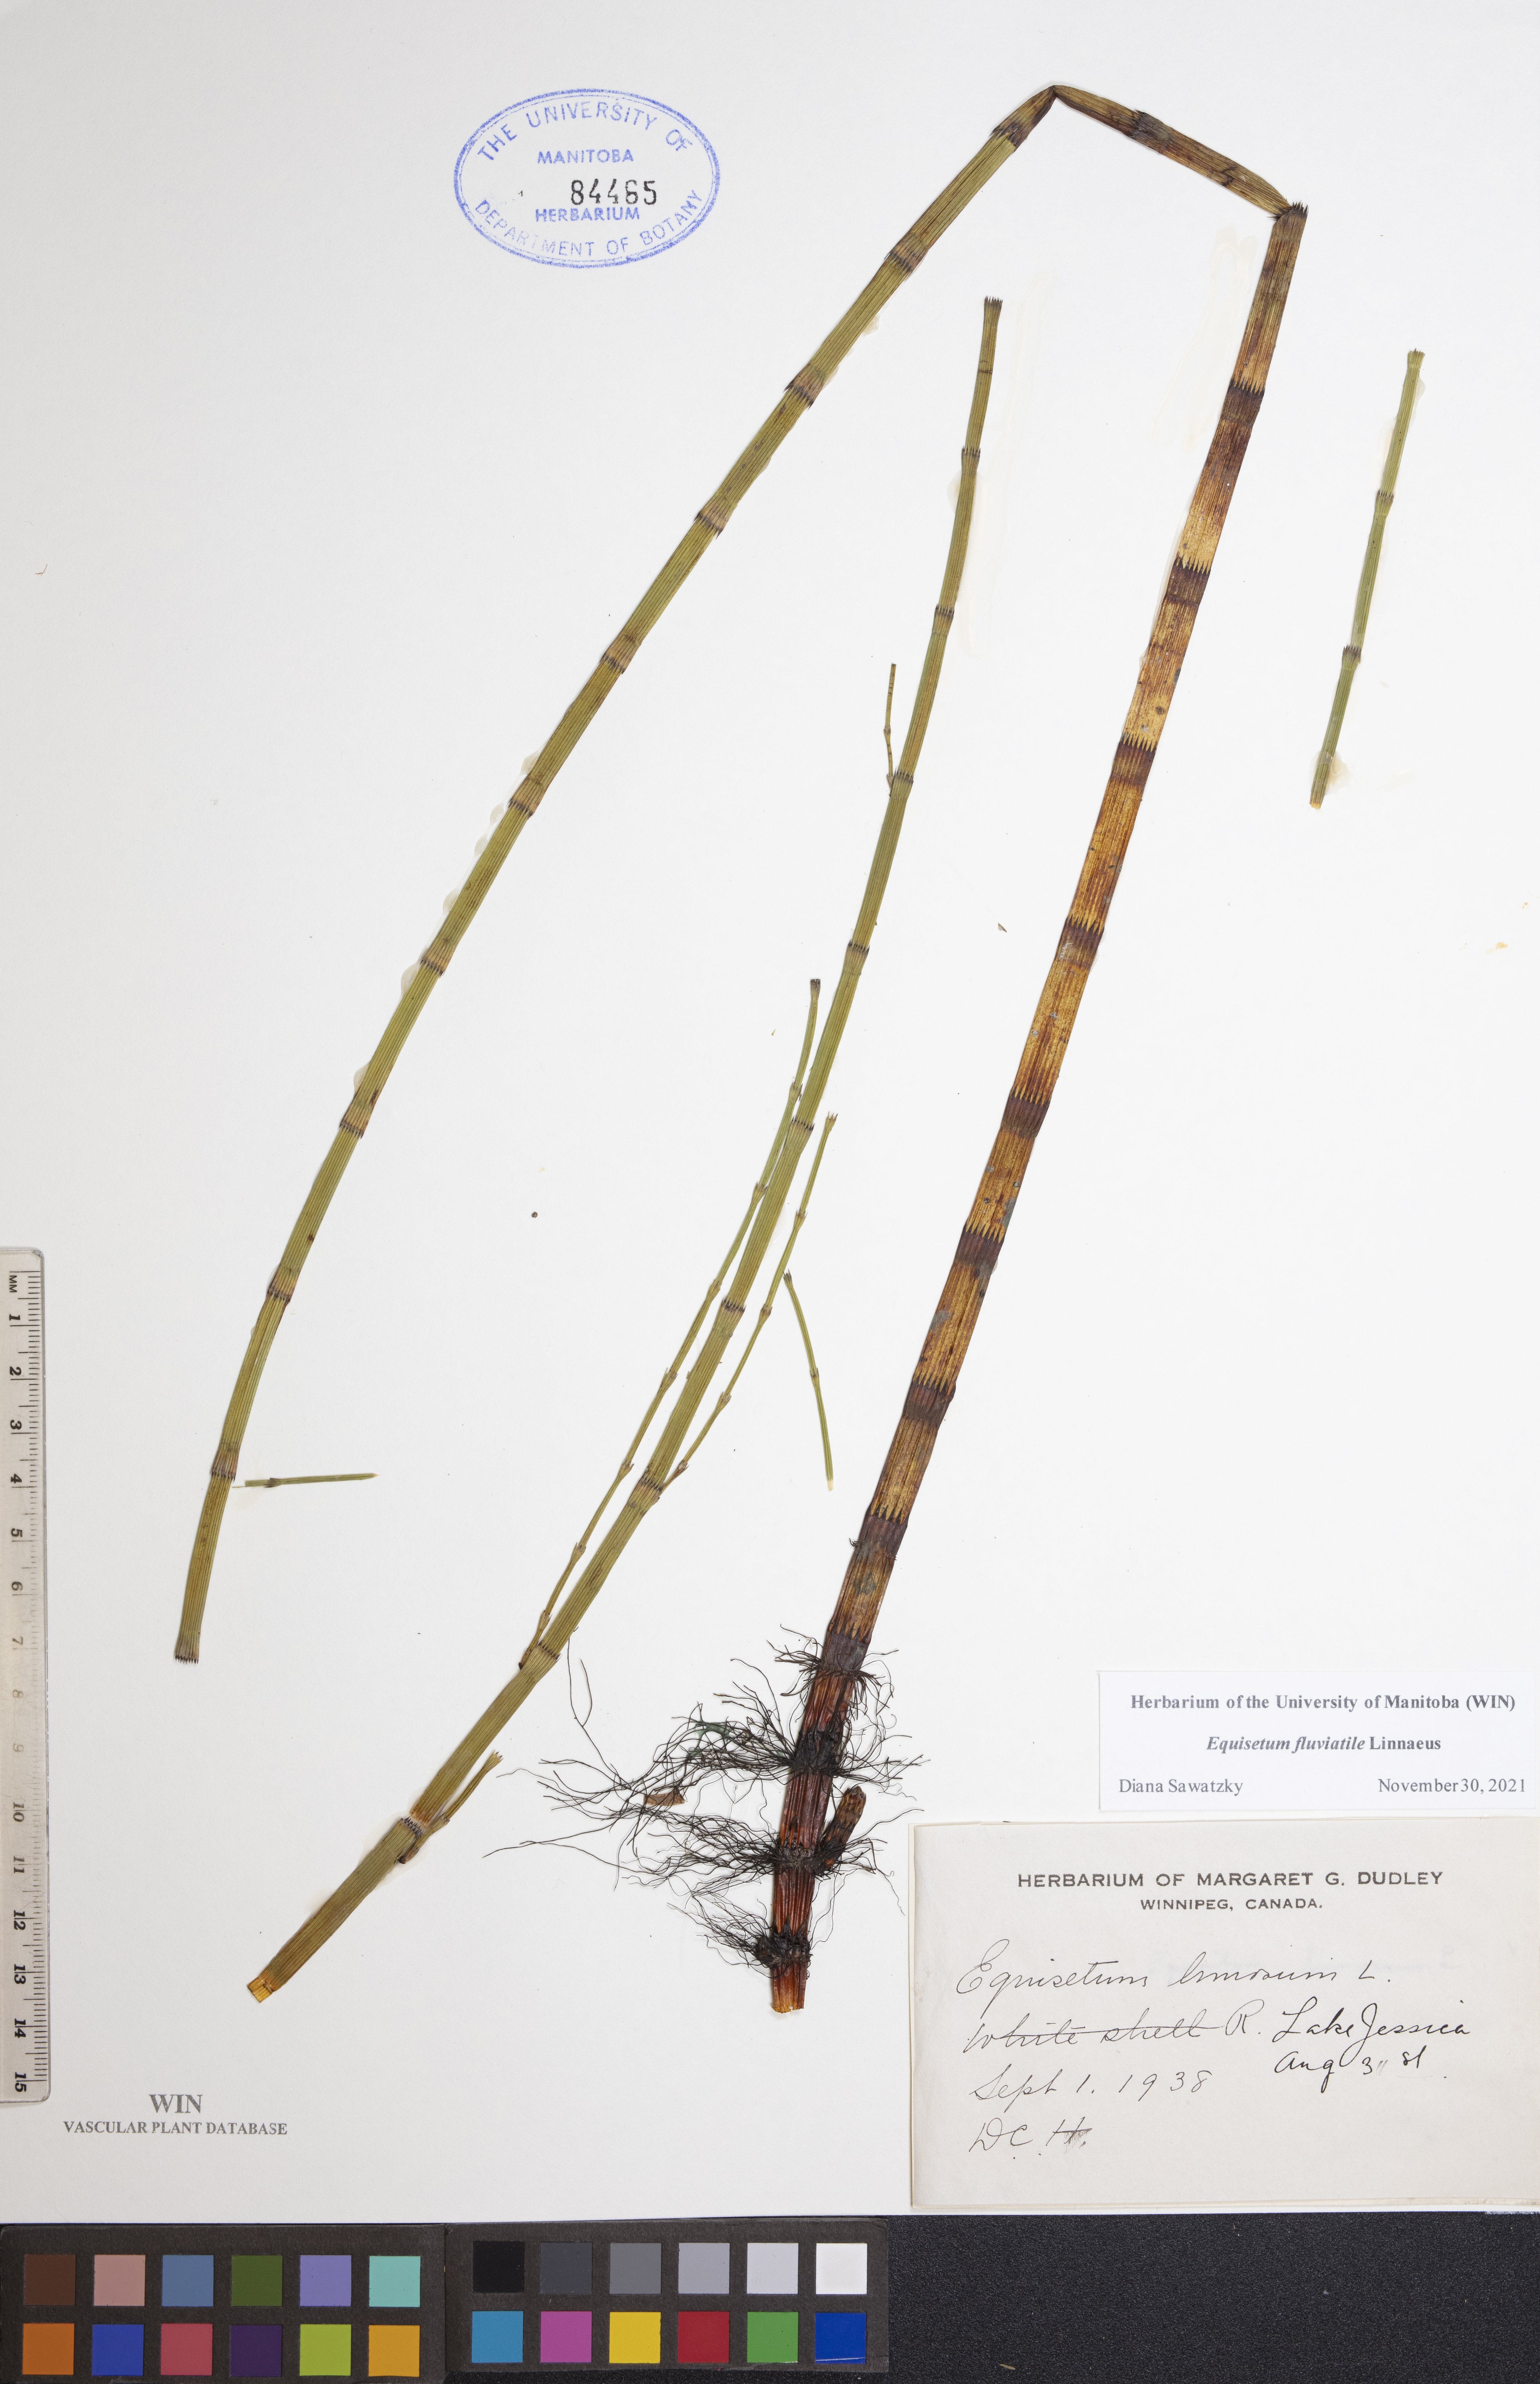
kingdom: Plantae
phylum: Tracheophyta
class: Polypodiopsida
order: Equisetales
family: Equisetaceae
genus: Equisetum
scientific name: Equisetum fluviatile
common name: Water horsetail
